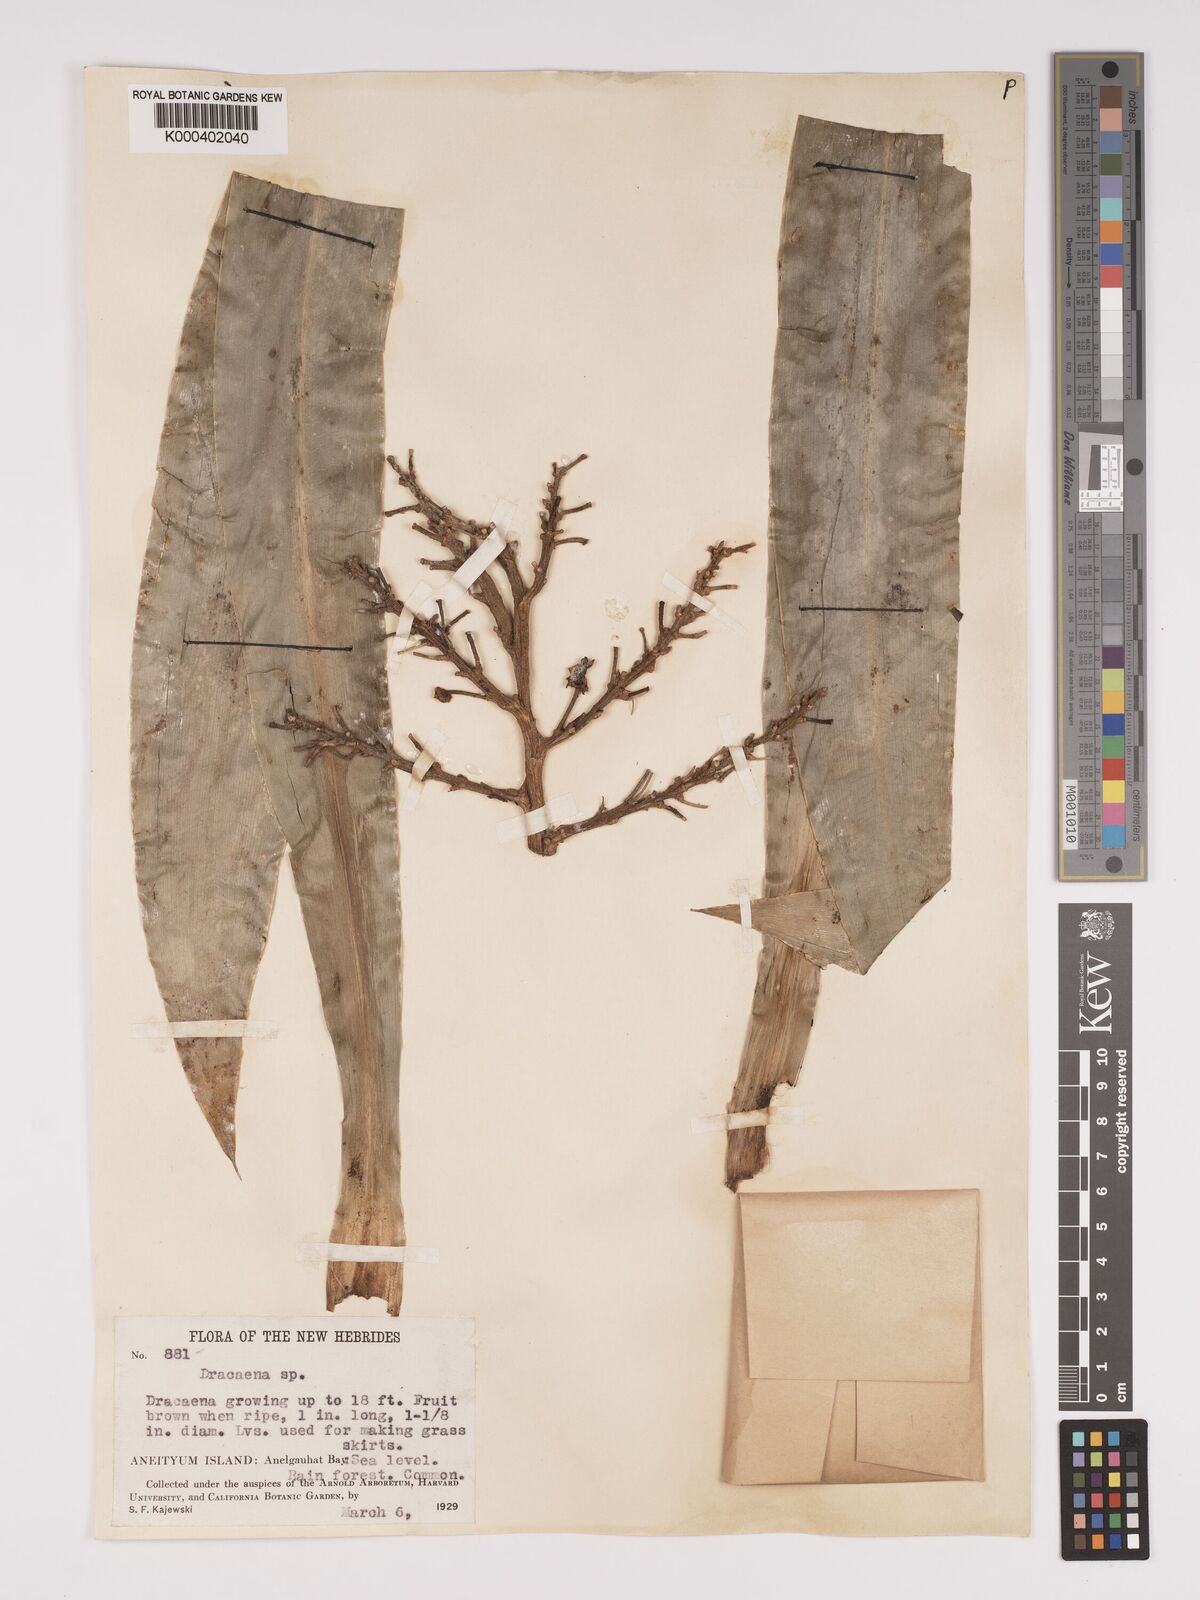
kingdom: Plantae
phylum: Tracheophyta
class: Liliopsida
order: Asparagales
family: Asparagaceae
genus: Dracaena
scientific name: Dracaena
